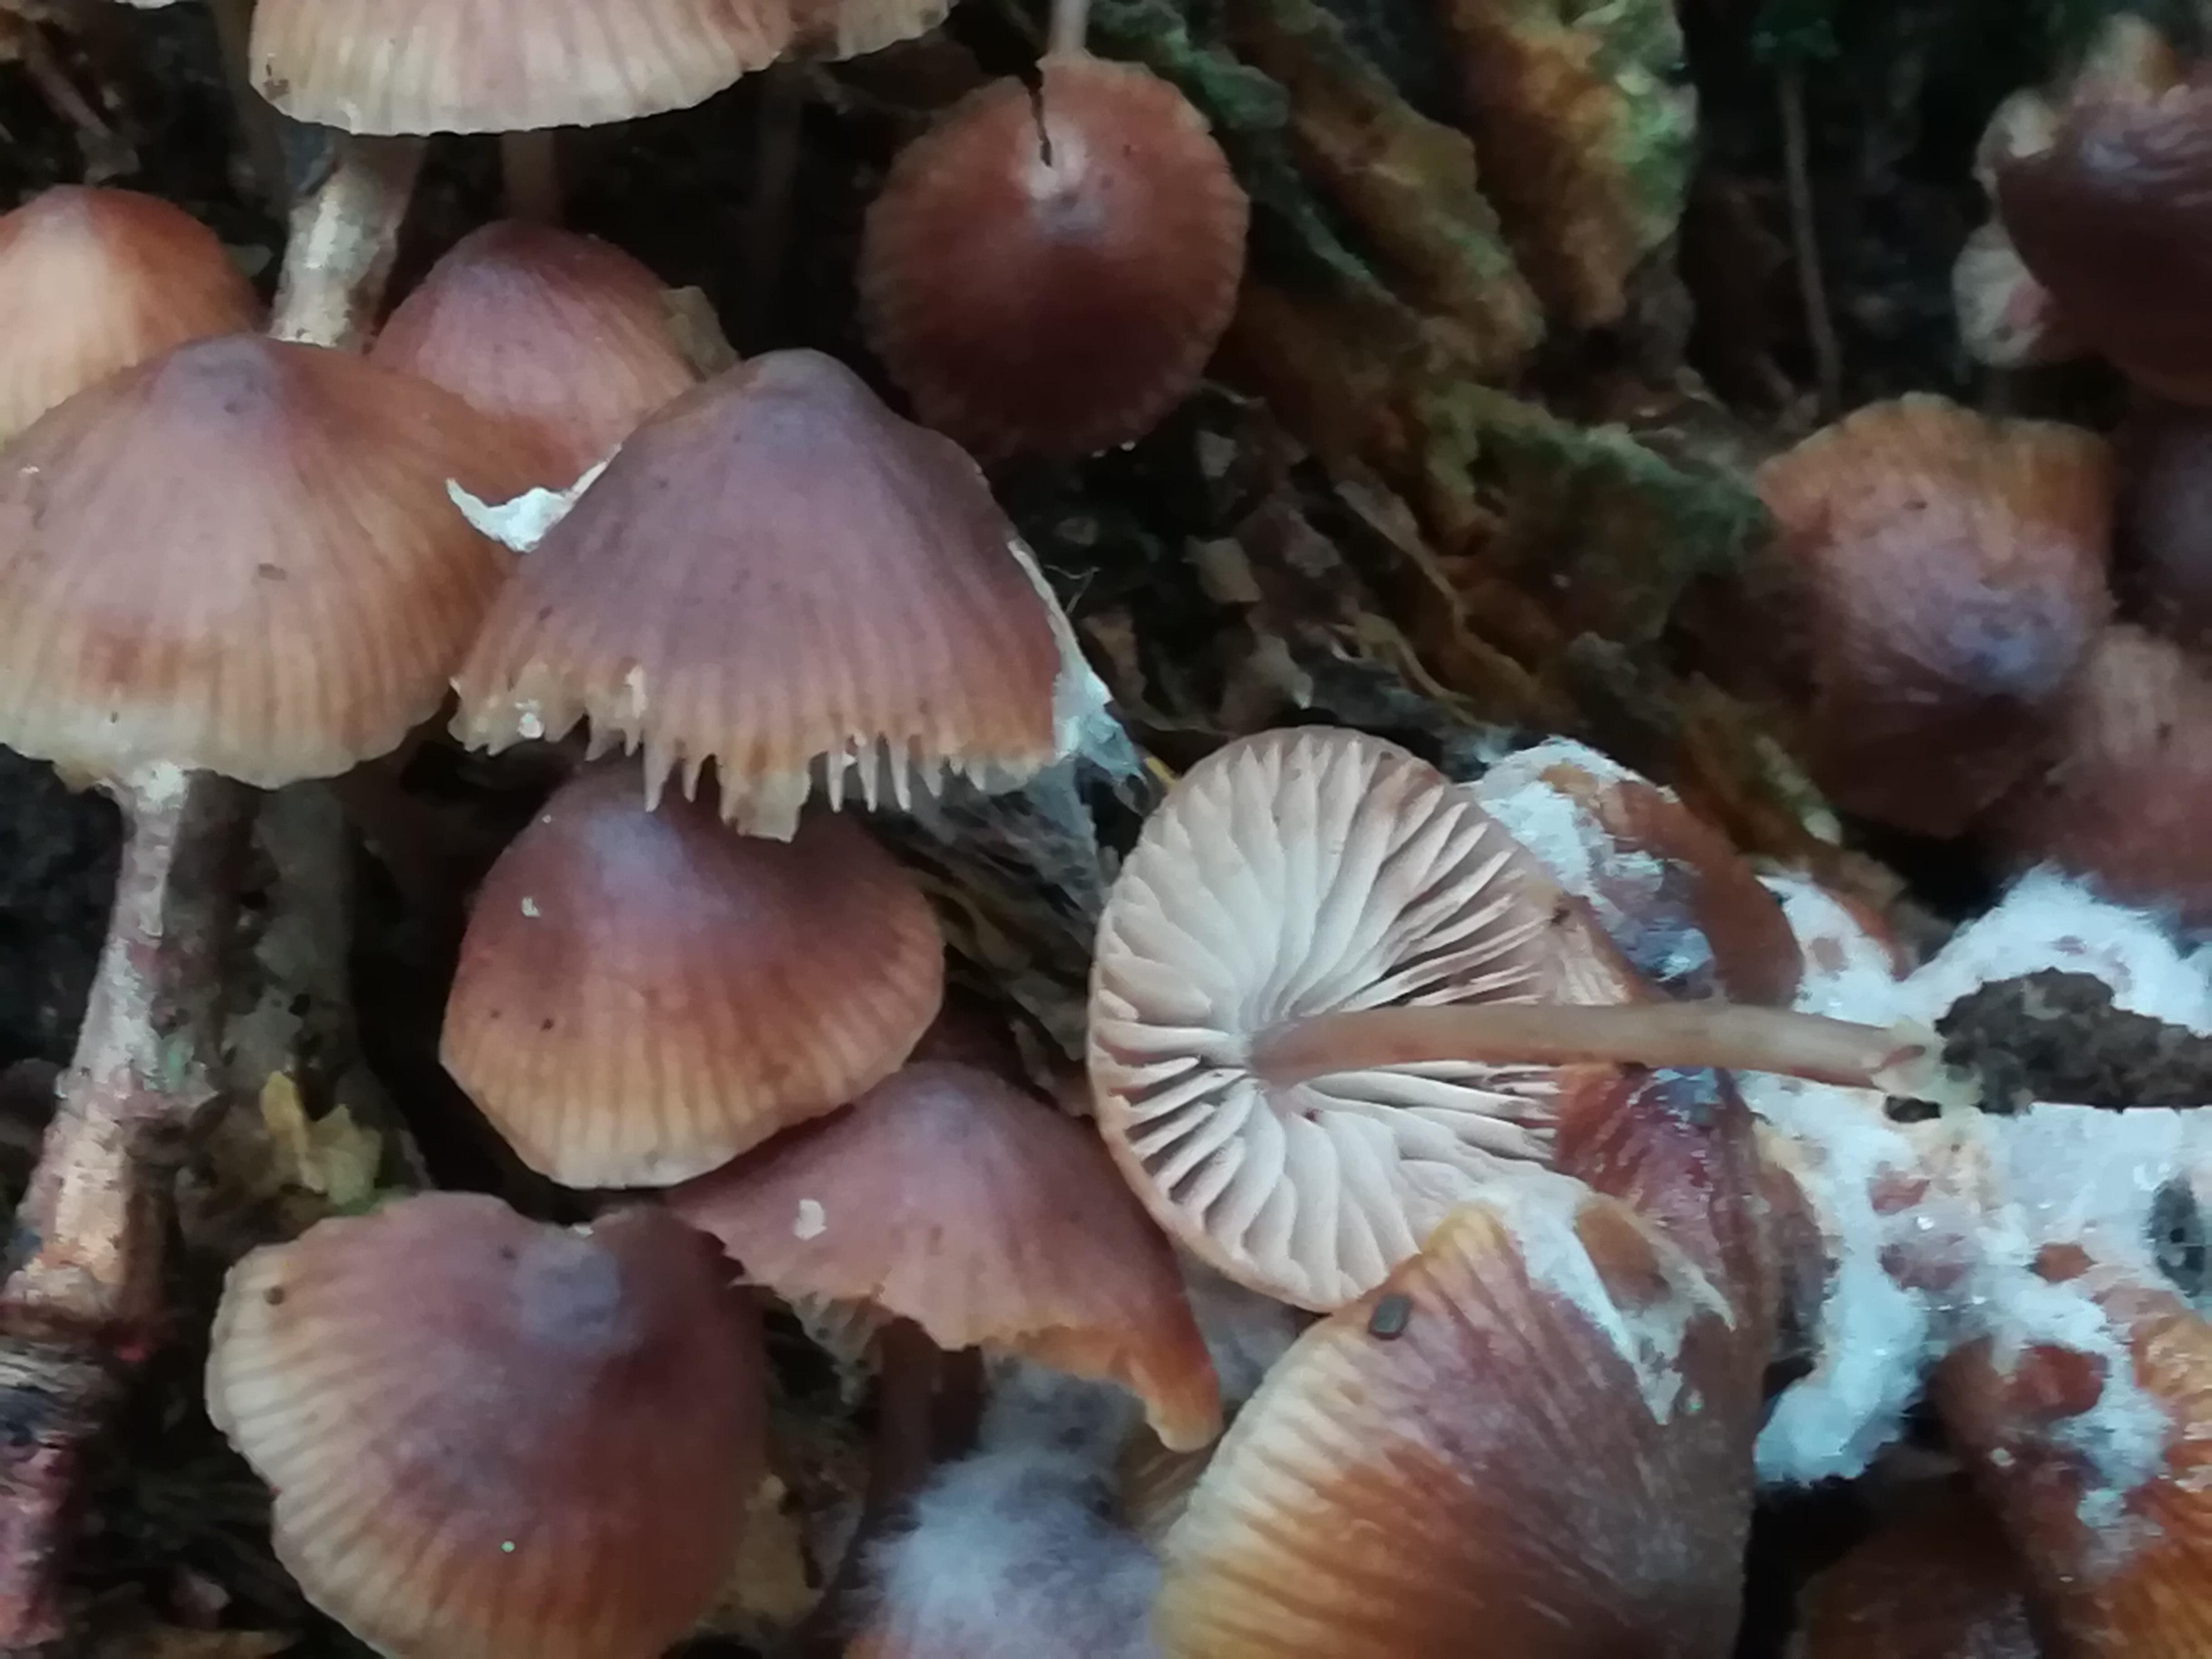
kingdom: Fungi
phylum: Basidiomycota
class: Agaricomycetes
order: Agaricales
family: Mycenaceae
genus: Mycena
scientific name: Mycena maculata
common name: rødplettet huesvamp
